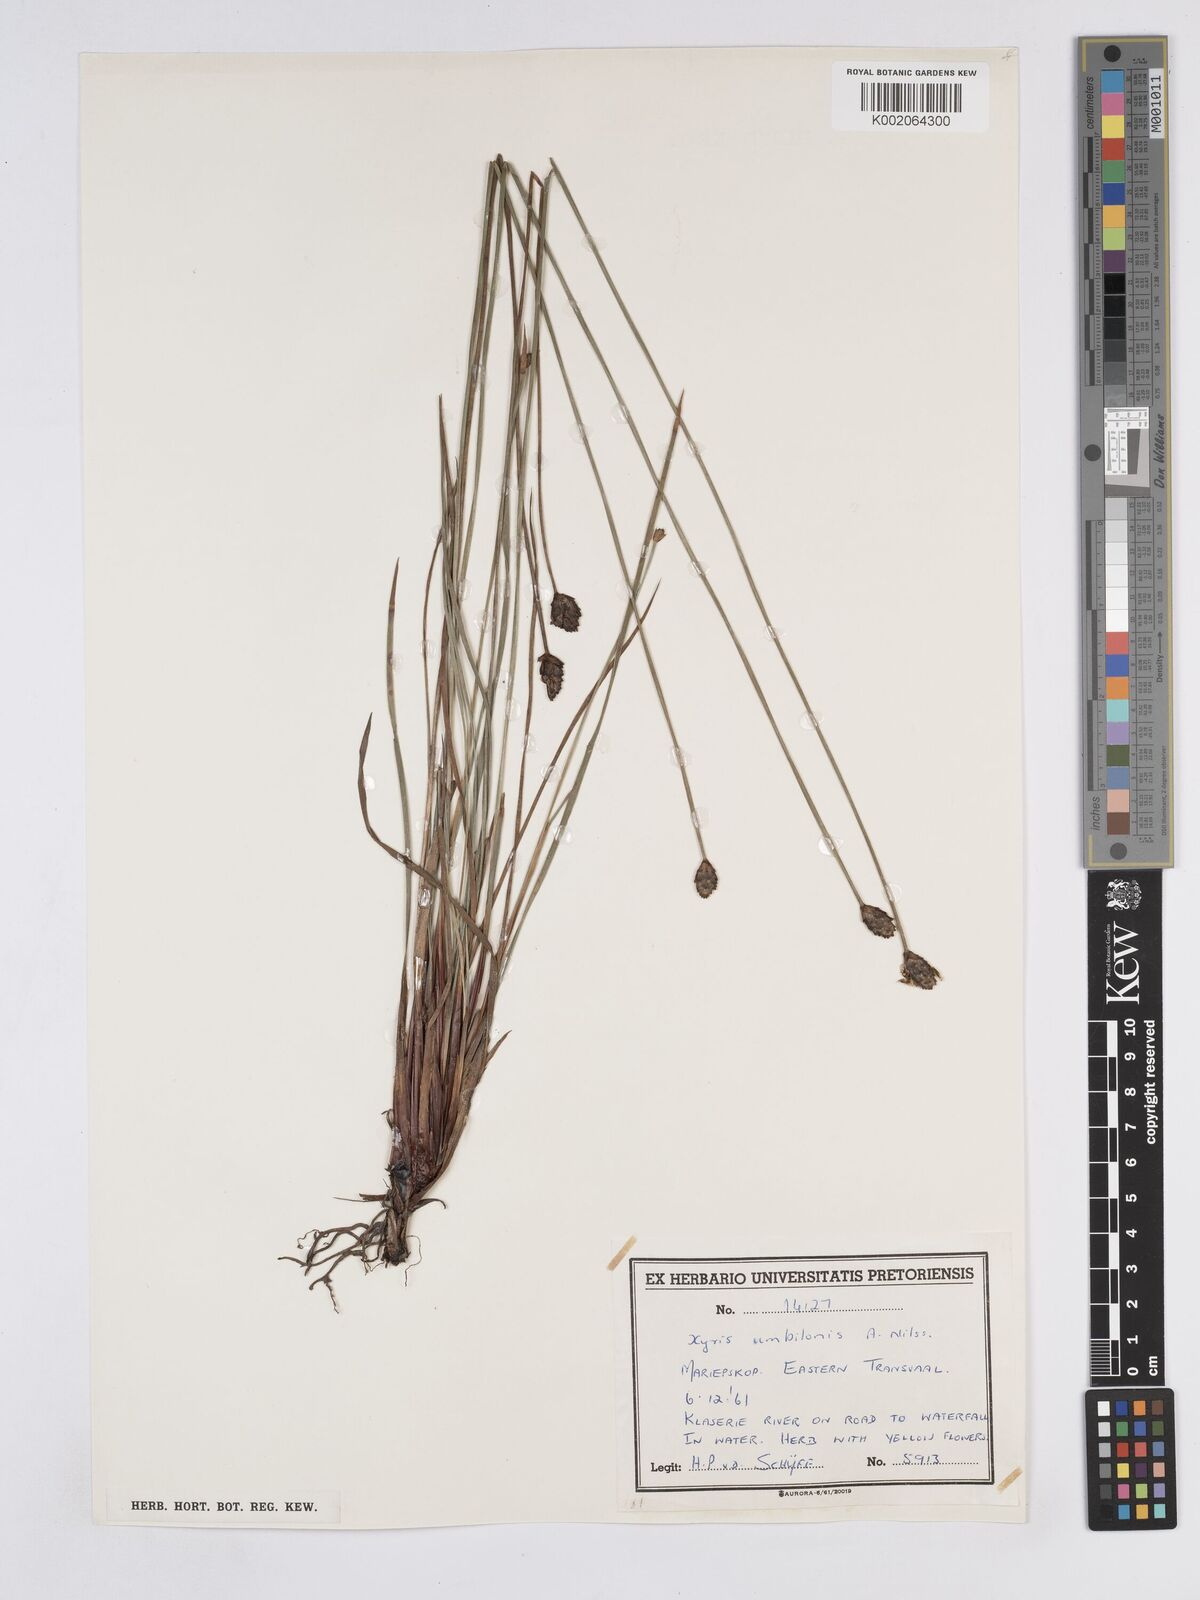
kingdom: Plantae
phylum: Tracheophyta
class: Liliopsida
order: Poales
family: Xyridaceae
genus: Xyris
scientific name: Xyris congensis
